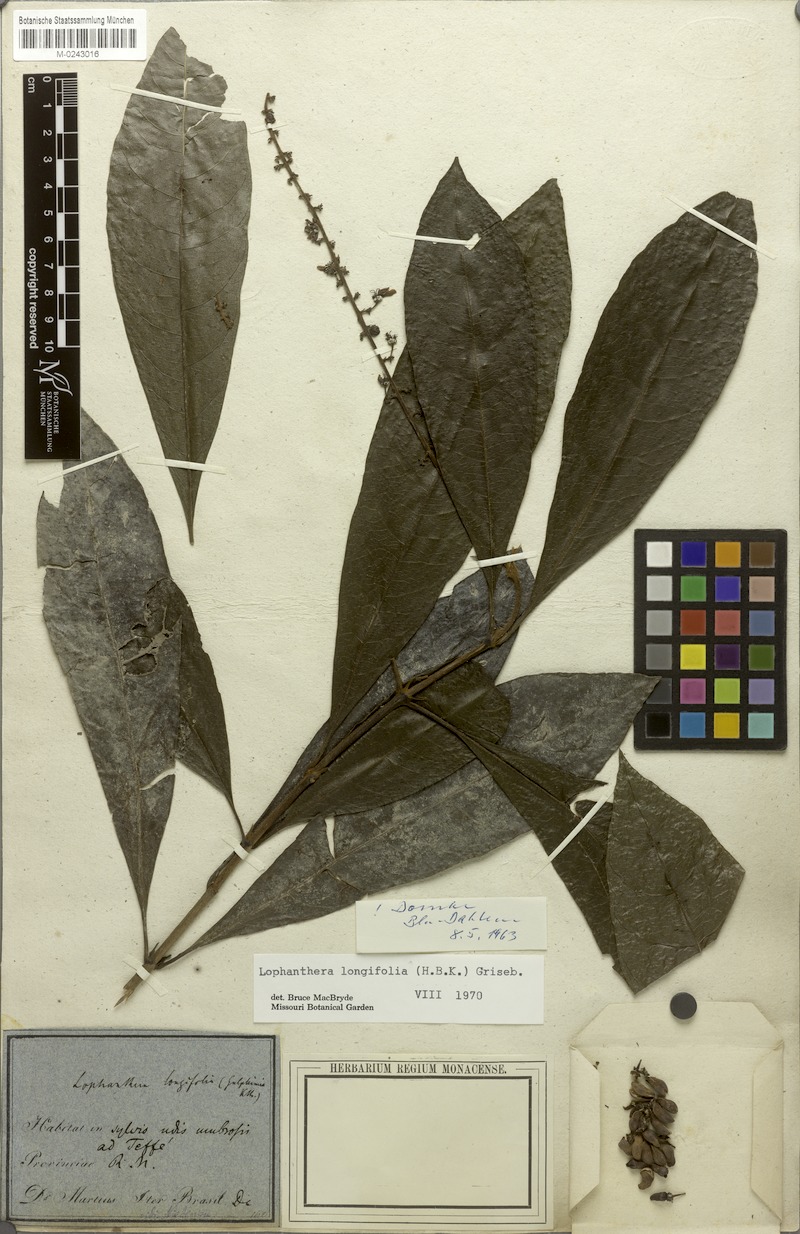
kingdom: Plantae
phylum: Tracheophyta
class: Magnoliopsida
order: Malpighiales
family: Malpighiaceae
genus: Lophanthera
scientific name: Lophanthera longifolia
